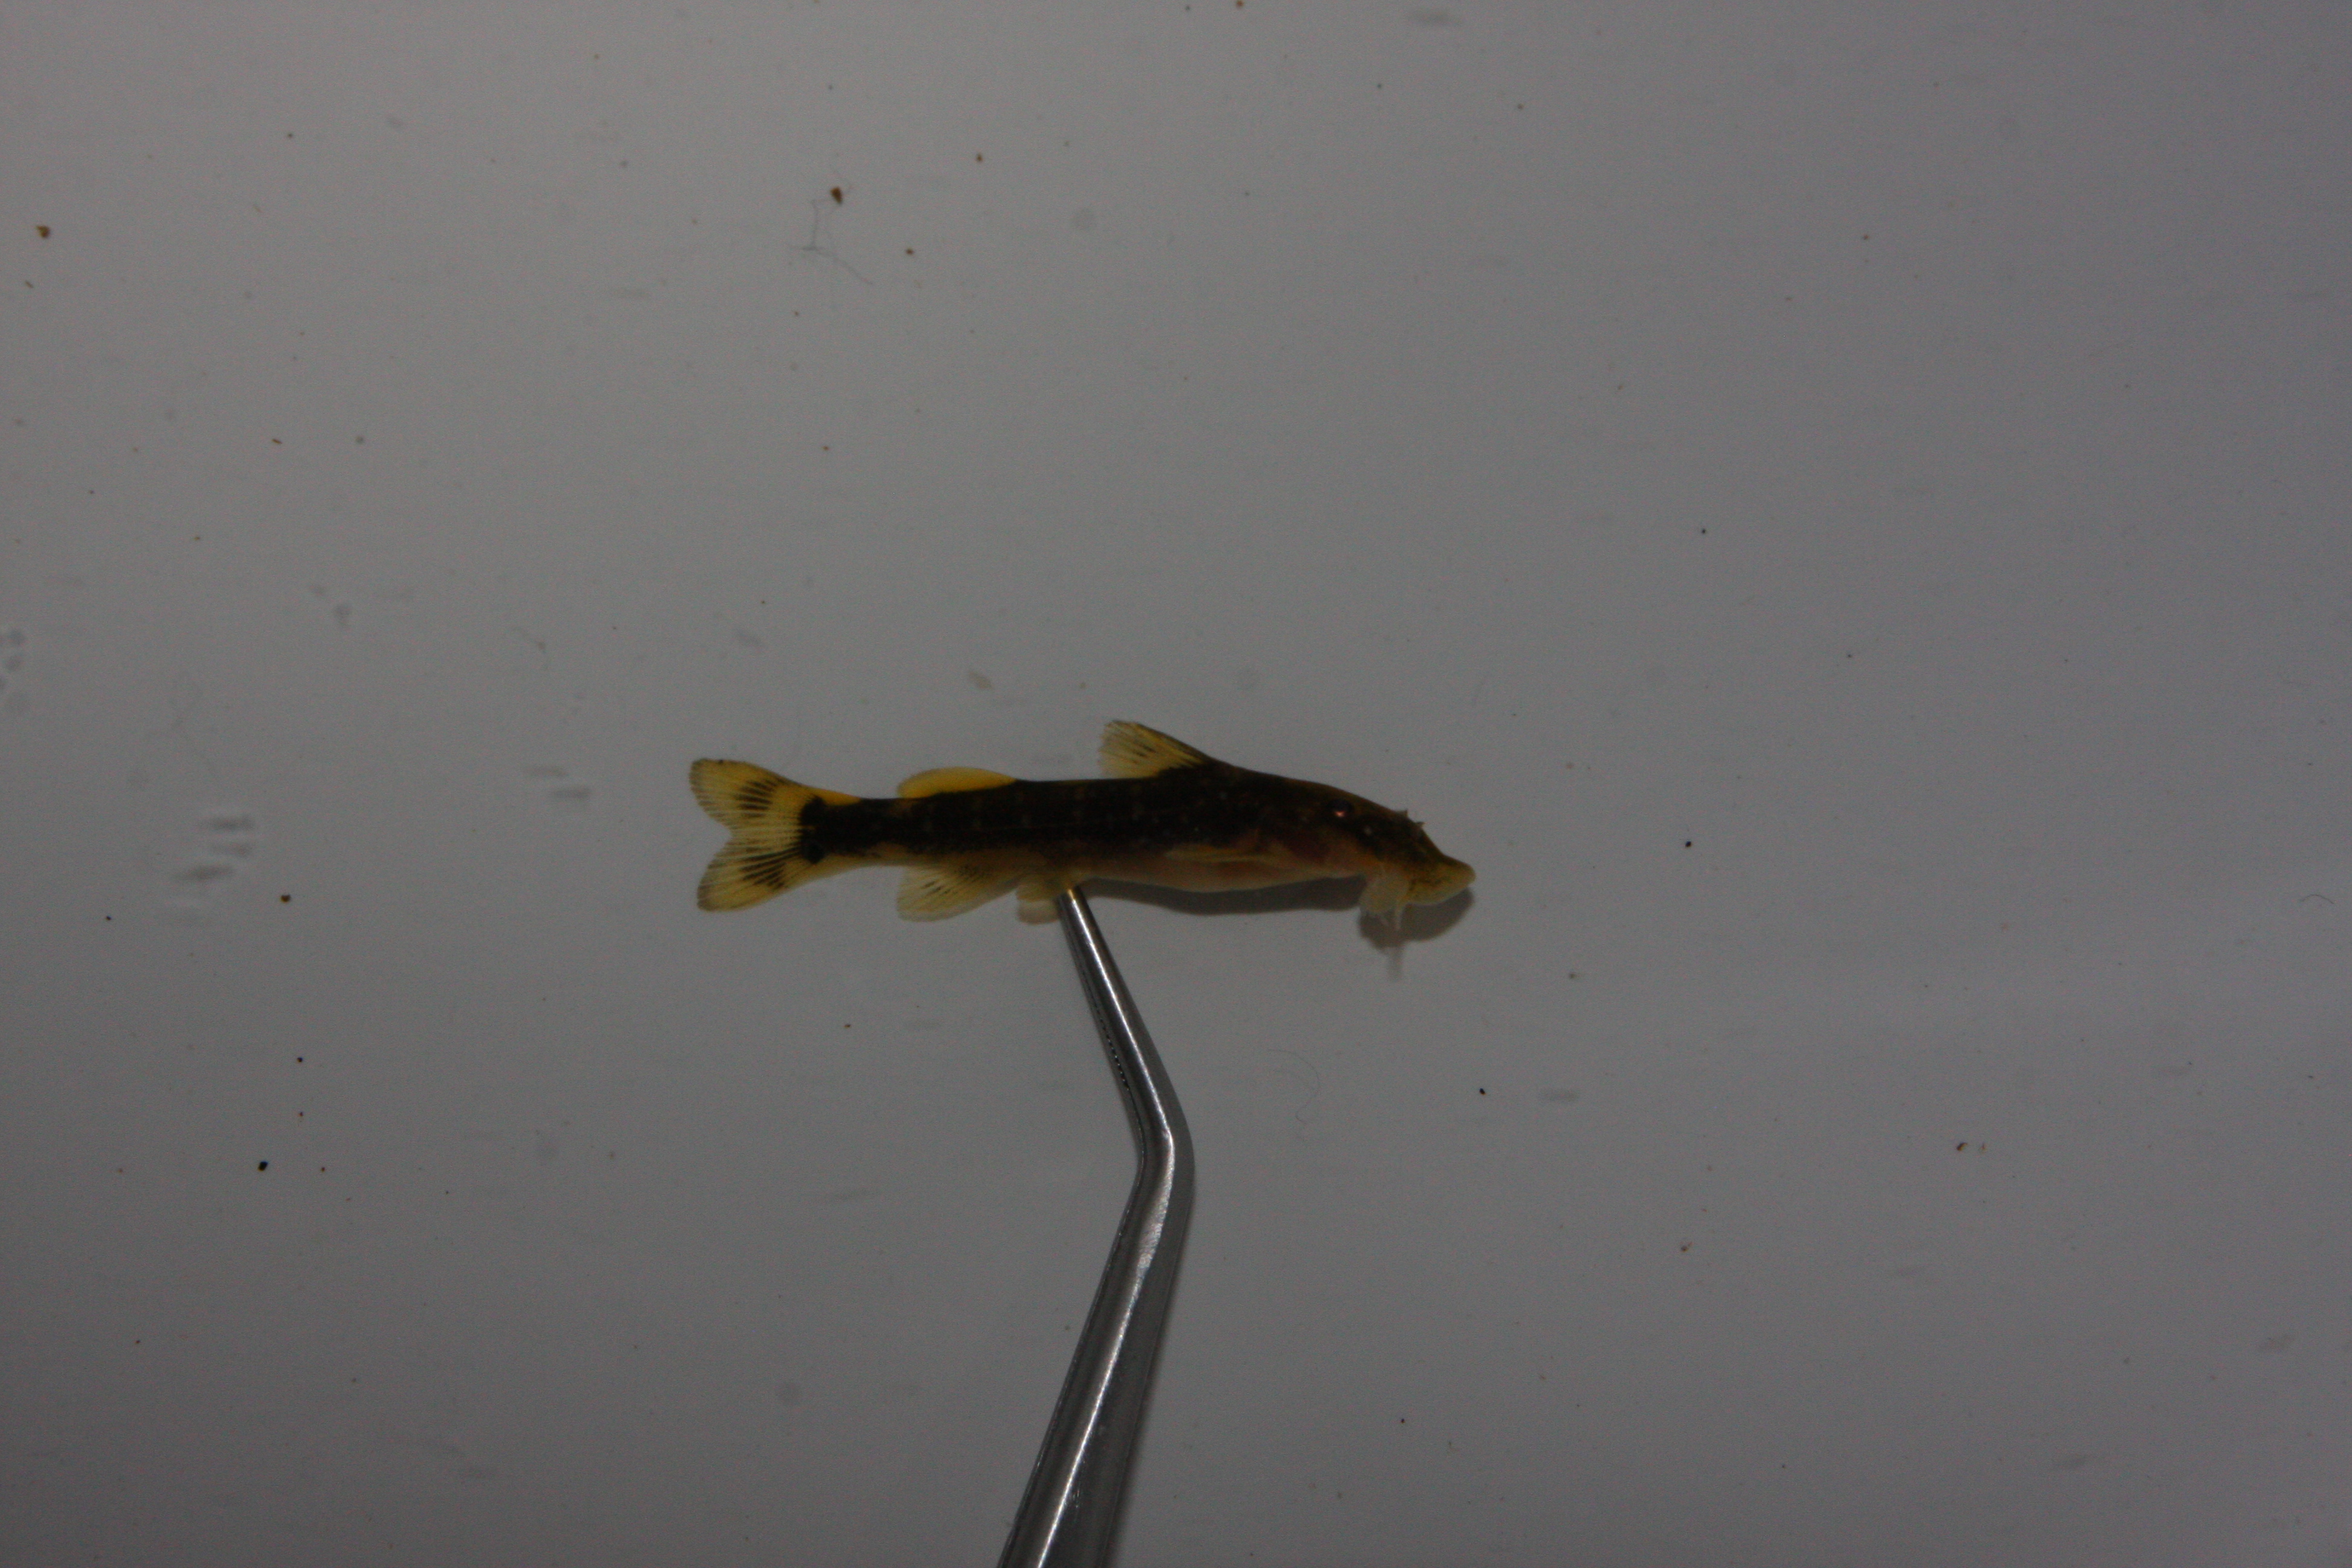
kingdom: Animalia
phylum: Chordata
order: Siluriformes
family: Mochokidae
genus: Chiloglanis
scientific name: Chiloglanis pretoriae
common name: Shortspine catlet
